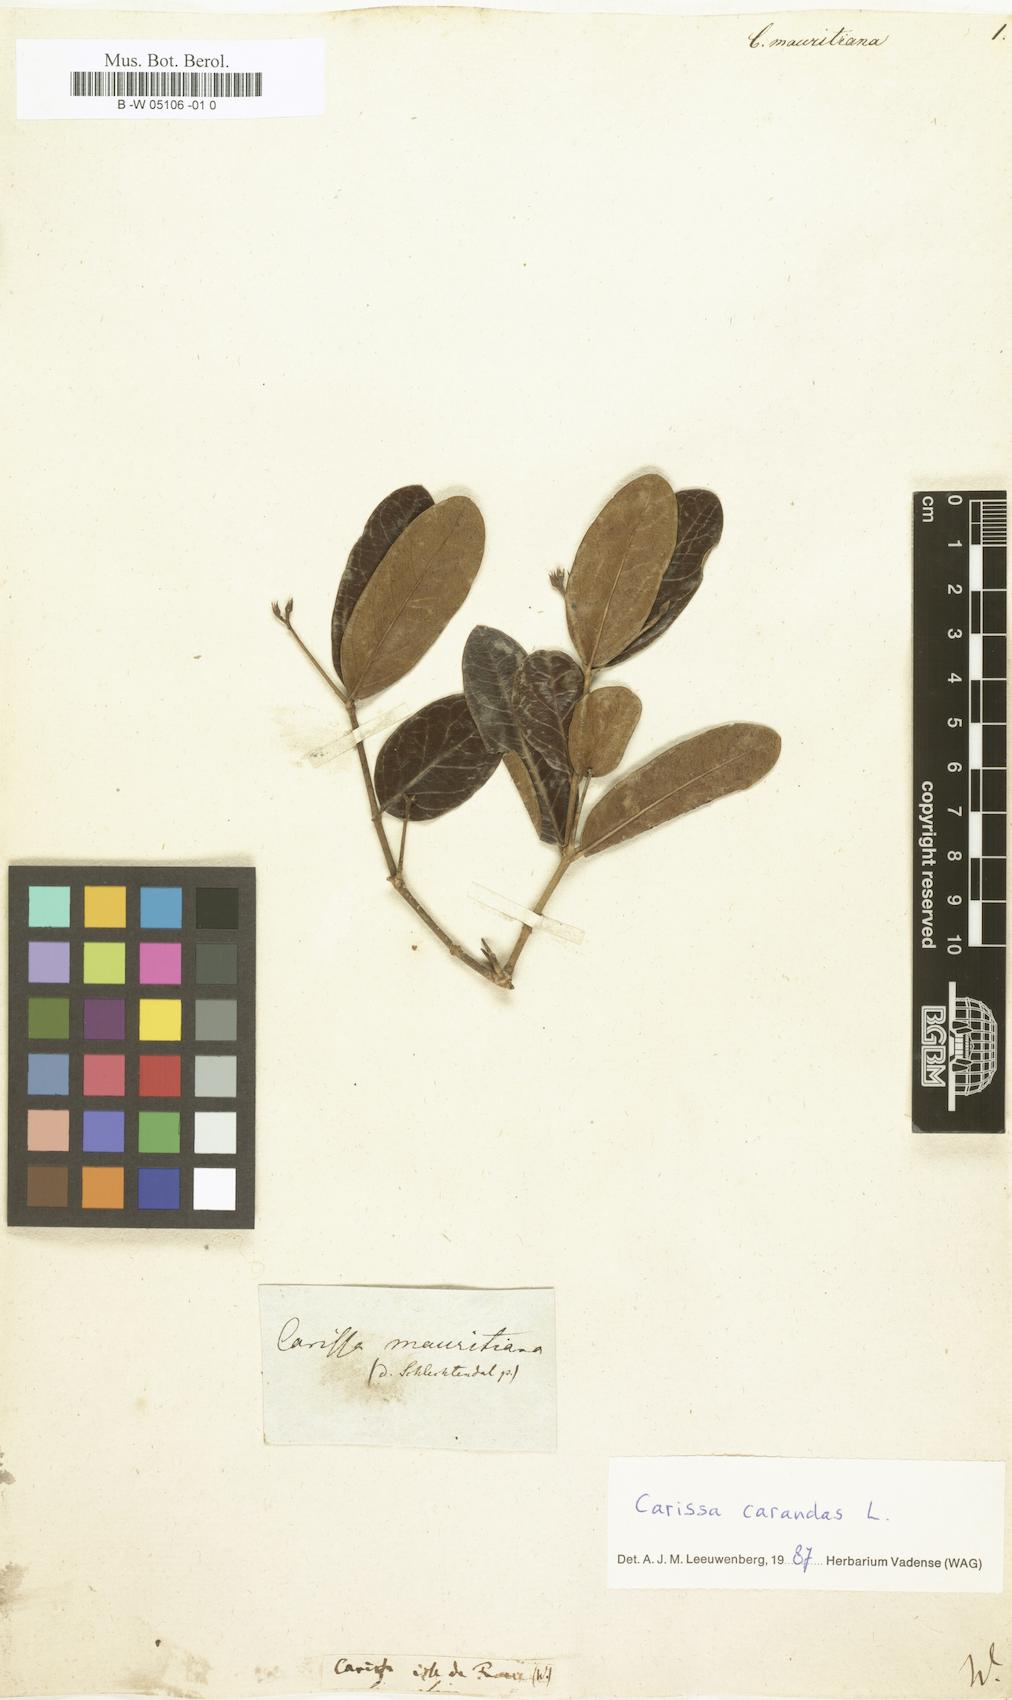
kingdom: Plantae
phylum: Tracheophyta
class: Magnoliopsida
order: Gentianales
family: Apocynaceae
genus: Carissa
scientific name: Carissa
